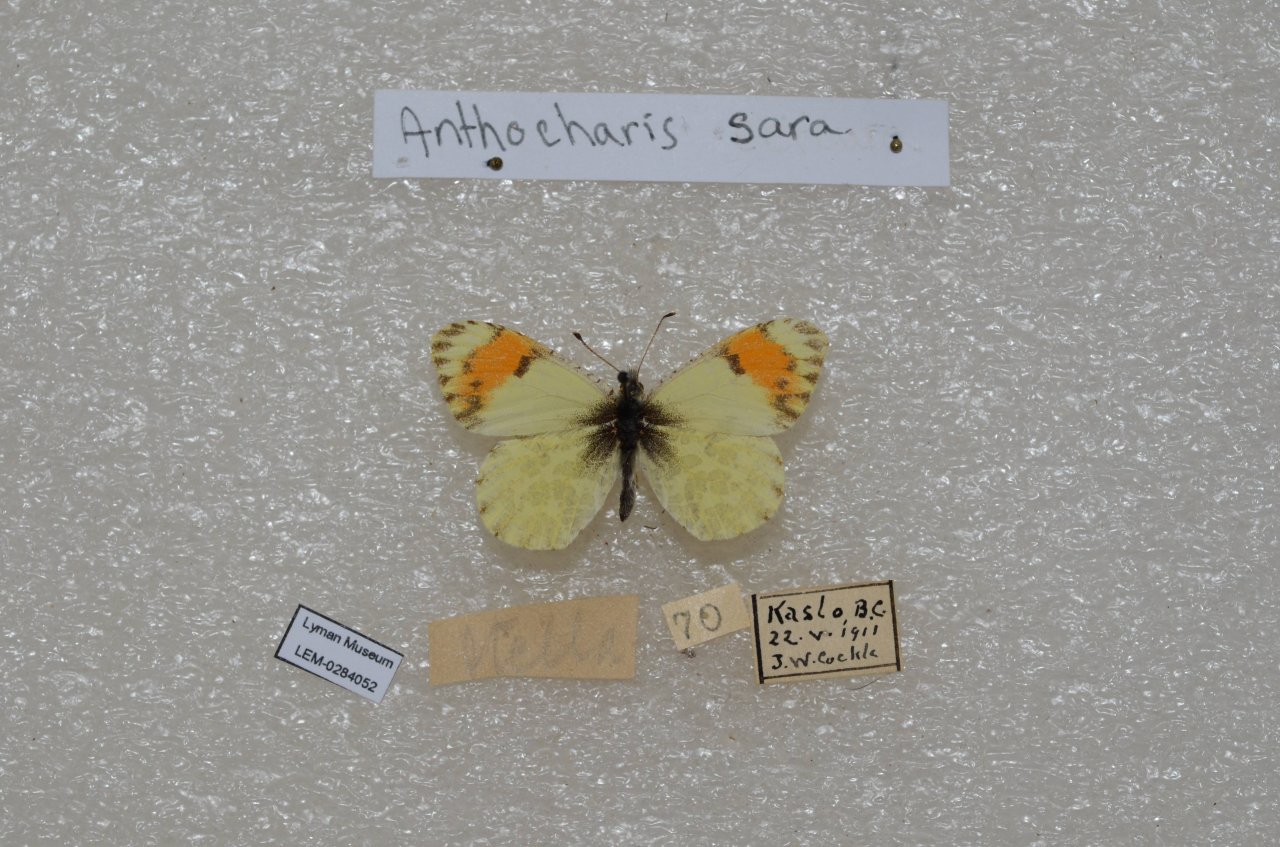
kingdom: Animalia
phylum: Arthropoda
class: Insecta
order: Lepidoptera
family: Pieridae
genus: Anthocharis
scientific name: Anthocharis sara
